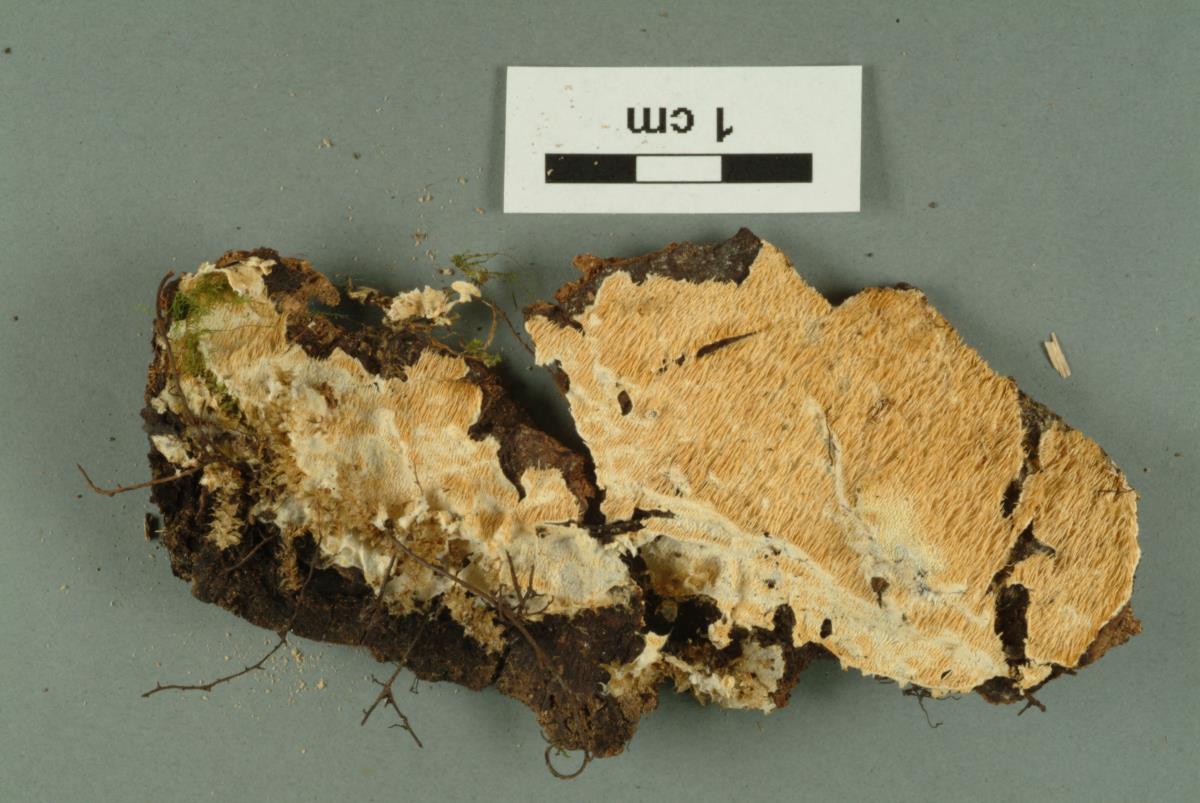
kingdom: Fungi
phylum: Basidiomycota
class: Agaricomycetes
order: Russulales
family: Hericiaceae
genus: Dentipellicula
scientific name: Dentipellicula leptodon
